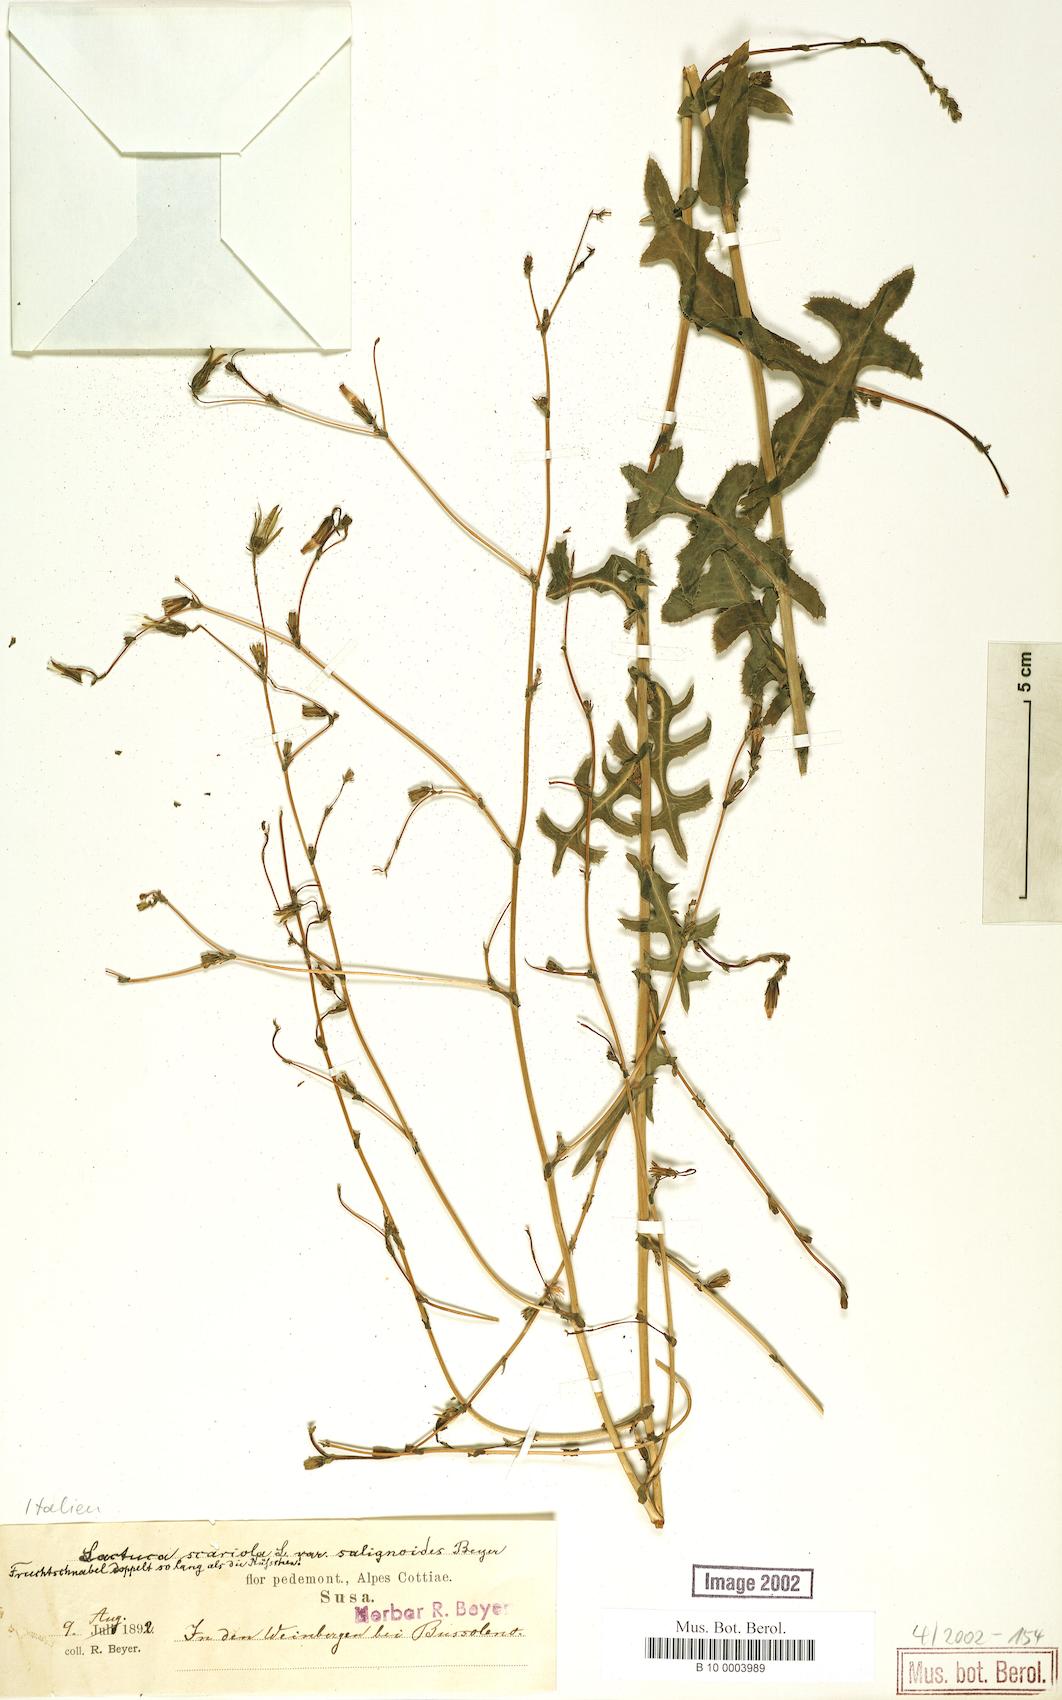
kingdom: Plantae
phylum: Tracheophyta
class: Magnoliopsida
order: Asterales
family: Asteraceae
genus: Lactuca
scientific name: Lactuca serriola
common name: Prickly lettuce
